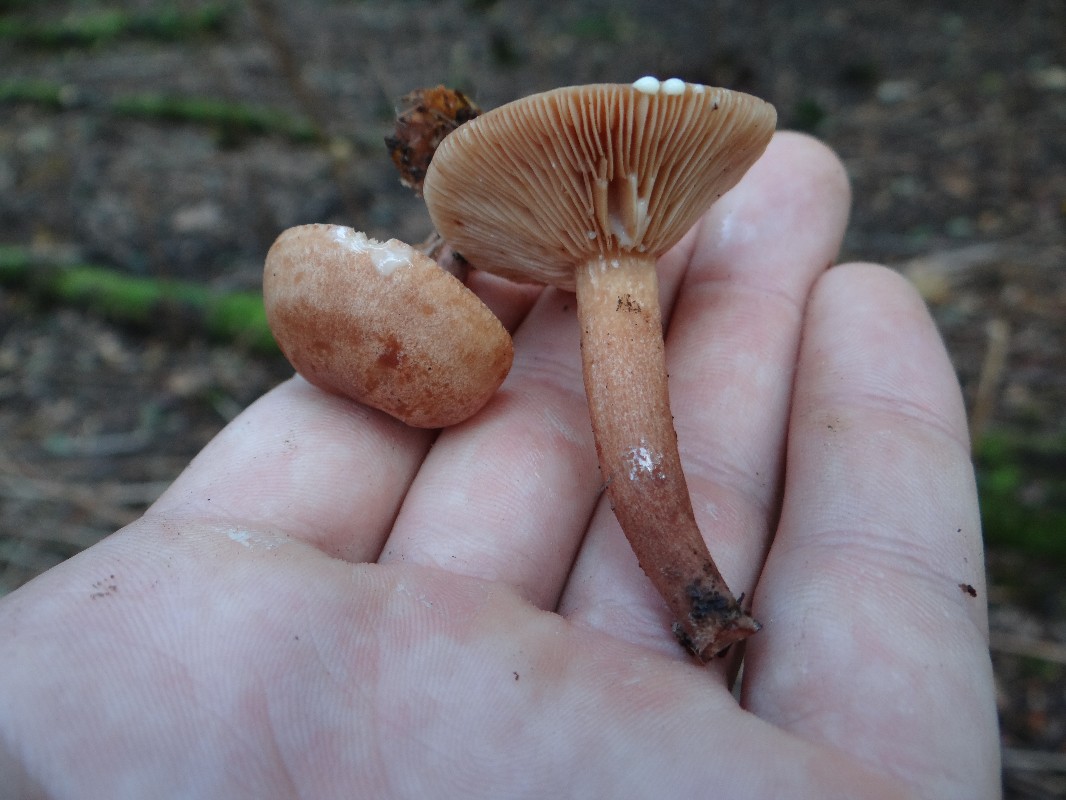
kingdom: Fungi
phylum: Basidiomycota
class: Agaricomycetes
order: Russulales
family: Russulaceae
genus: Lactarius
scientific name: Lactarius rufus
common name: rødbrun mælkehat
